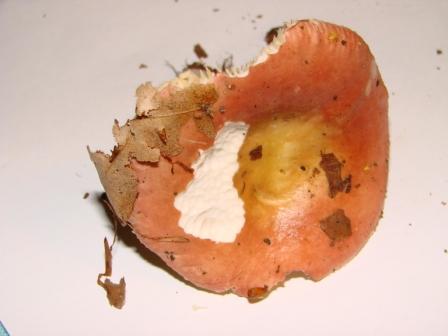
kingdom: Fungi
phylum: Basidiomycota
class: Agaricomycetes
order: Russulales
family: Russulaceae
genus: Russula
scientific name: Russula veternosa
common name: blødkødet skørhat
